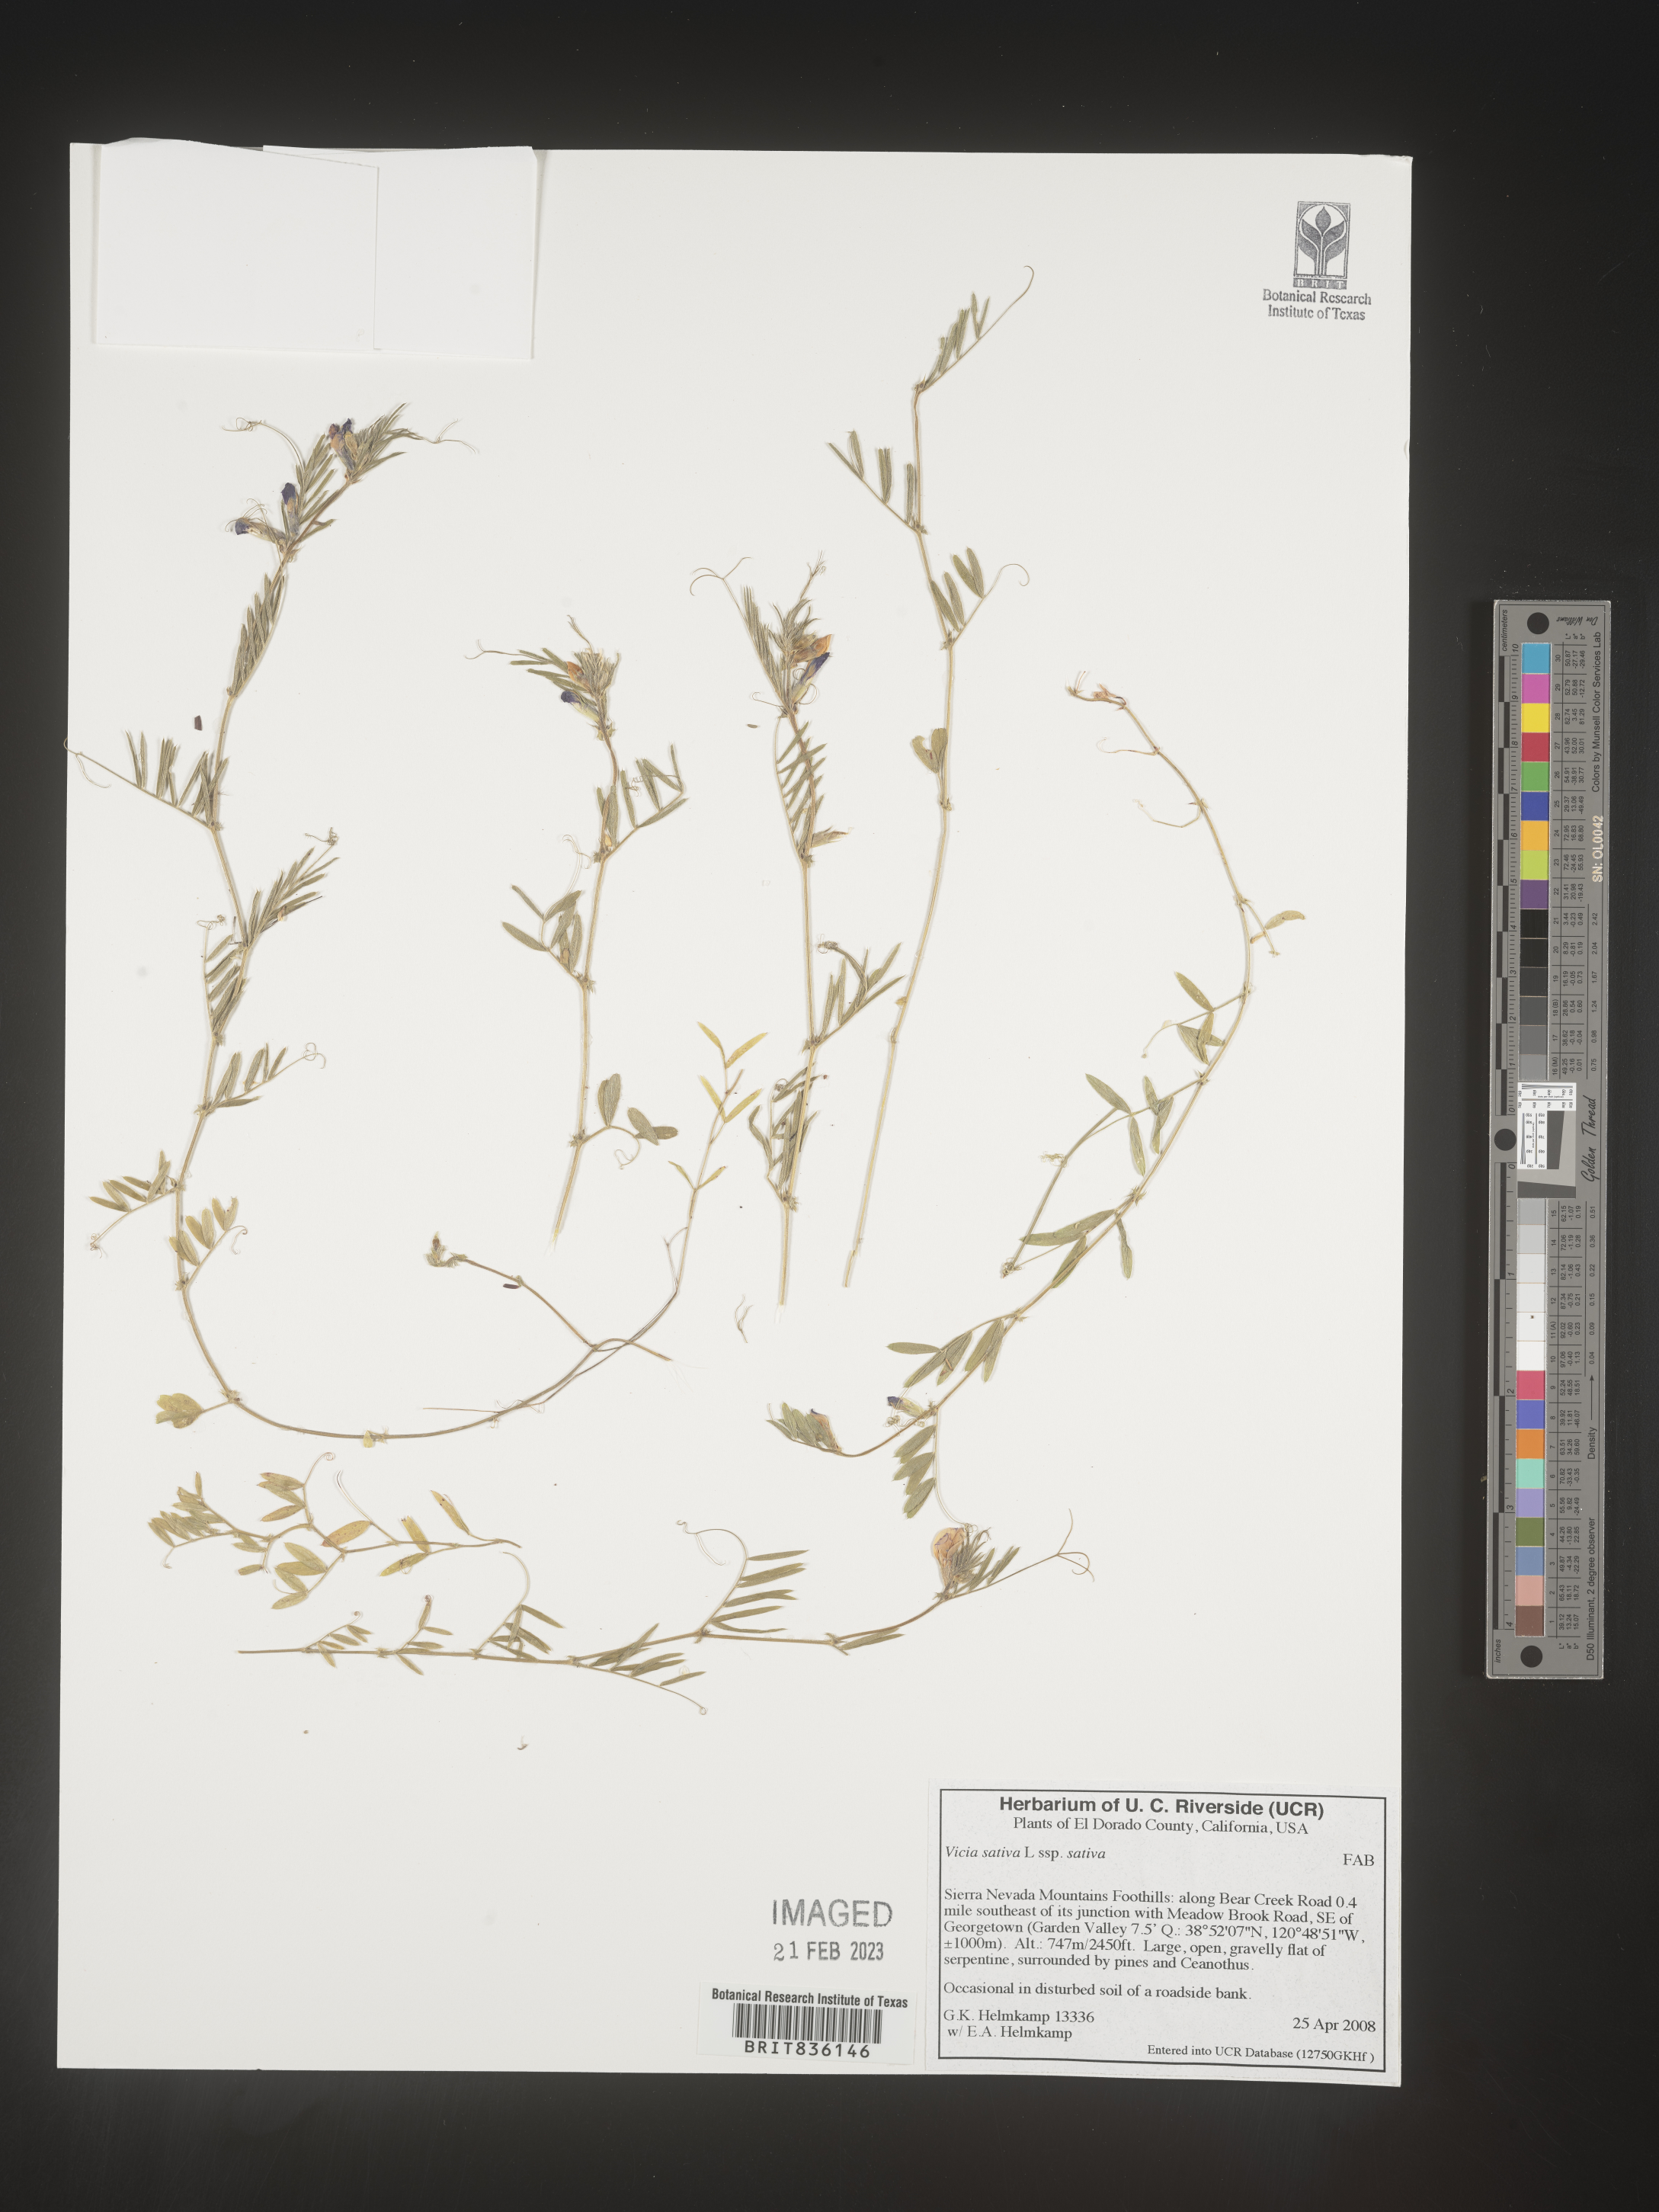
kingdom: Plantae
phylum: Tracheophyta
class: Magnoliopsida
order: Fabales
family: Fabaceae
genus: Vicia
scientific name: Vicia sativa
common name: Garden vetch
